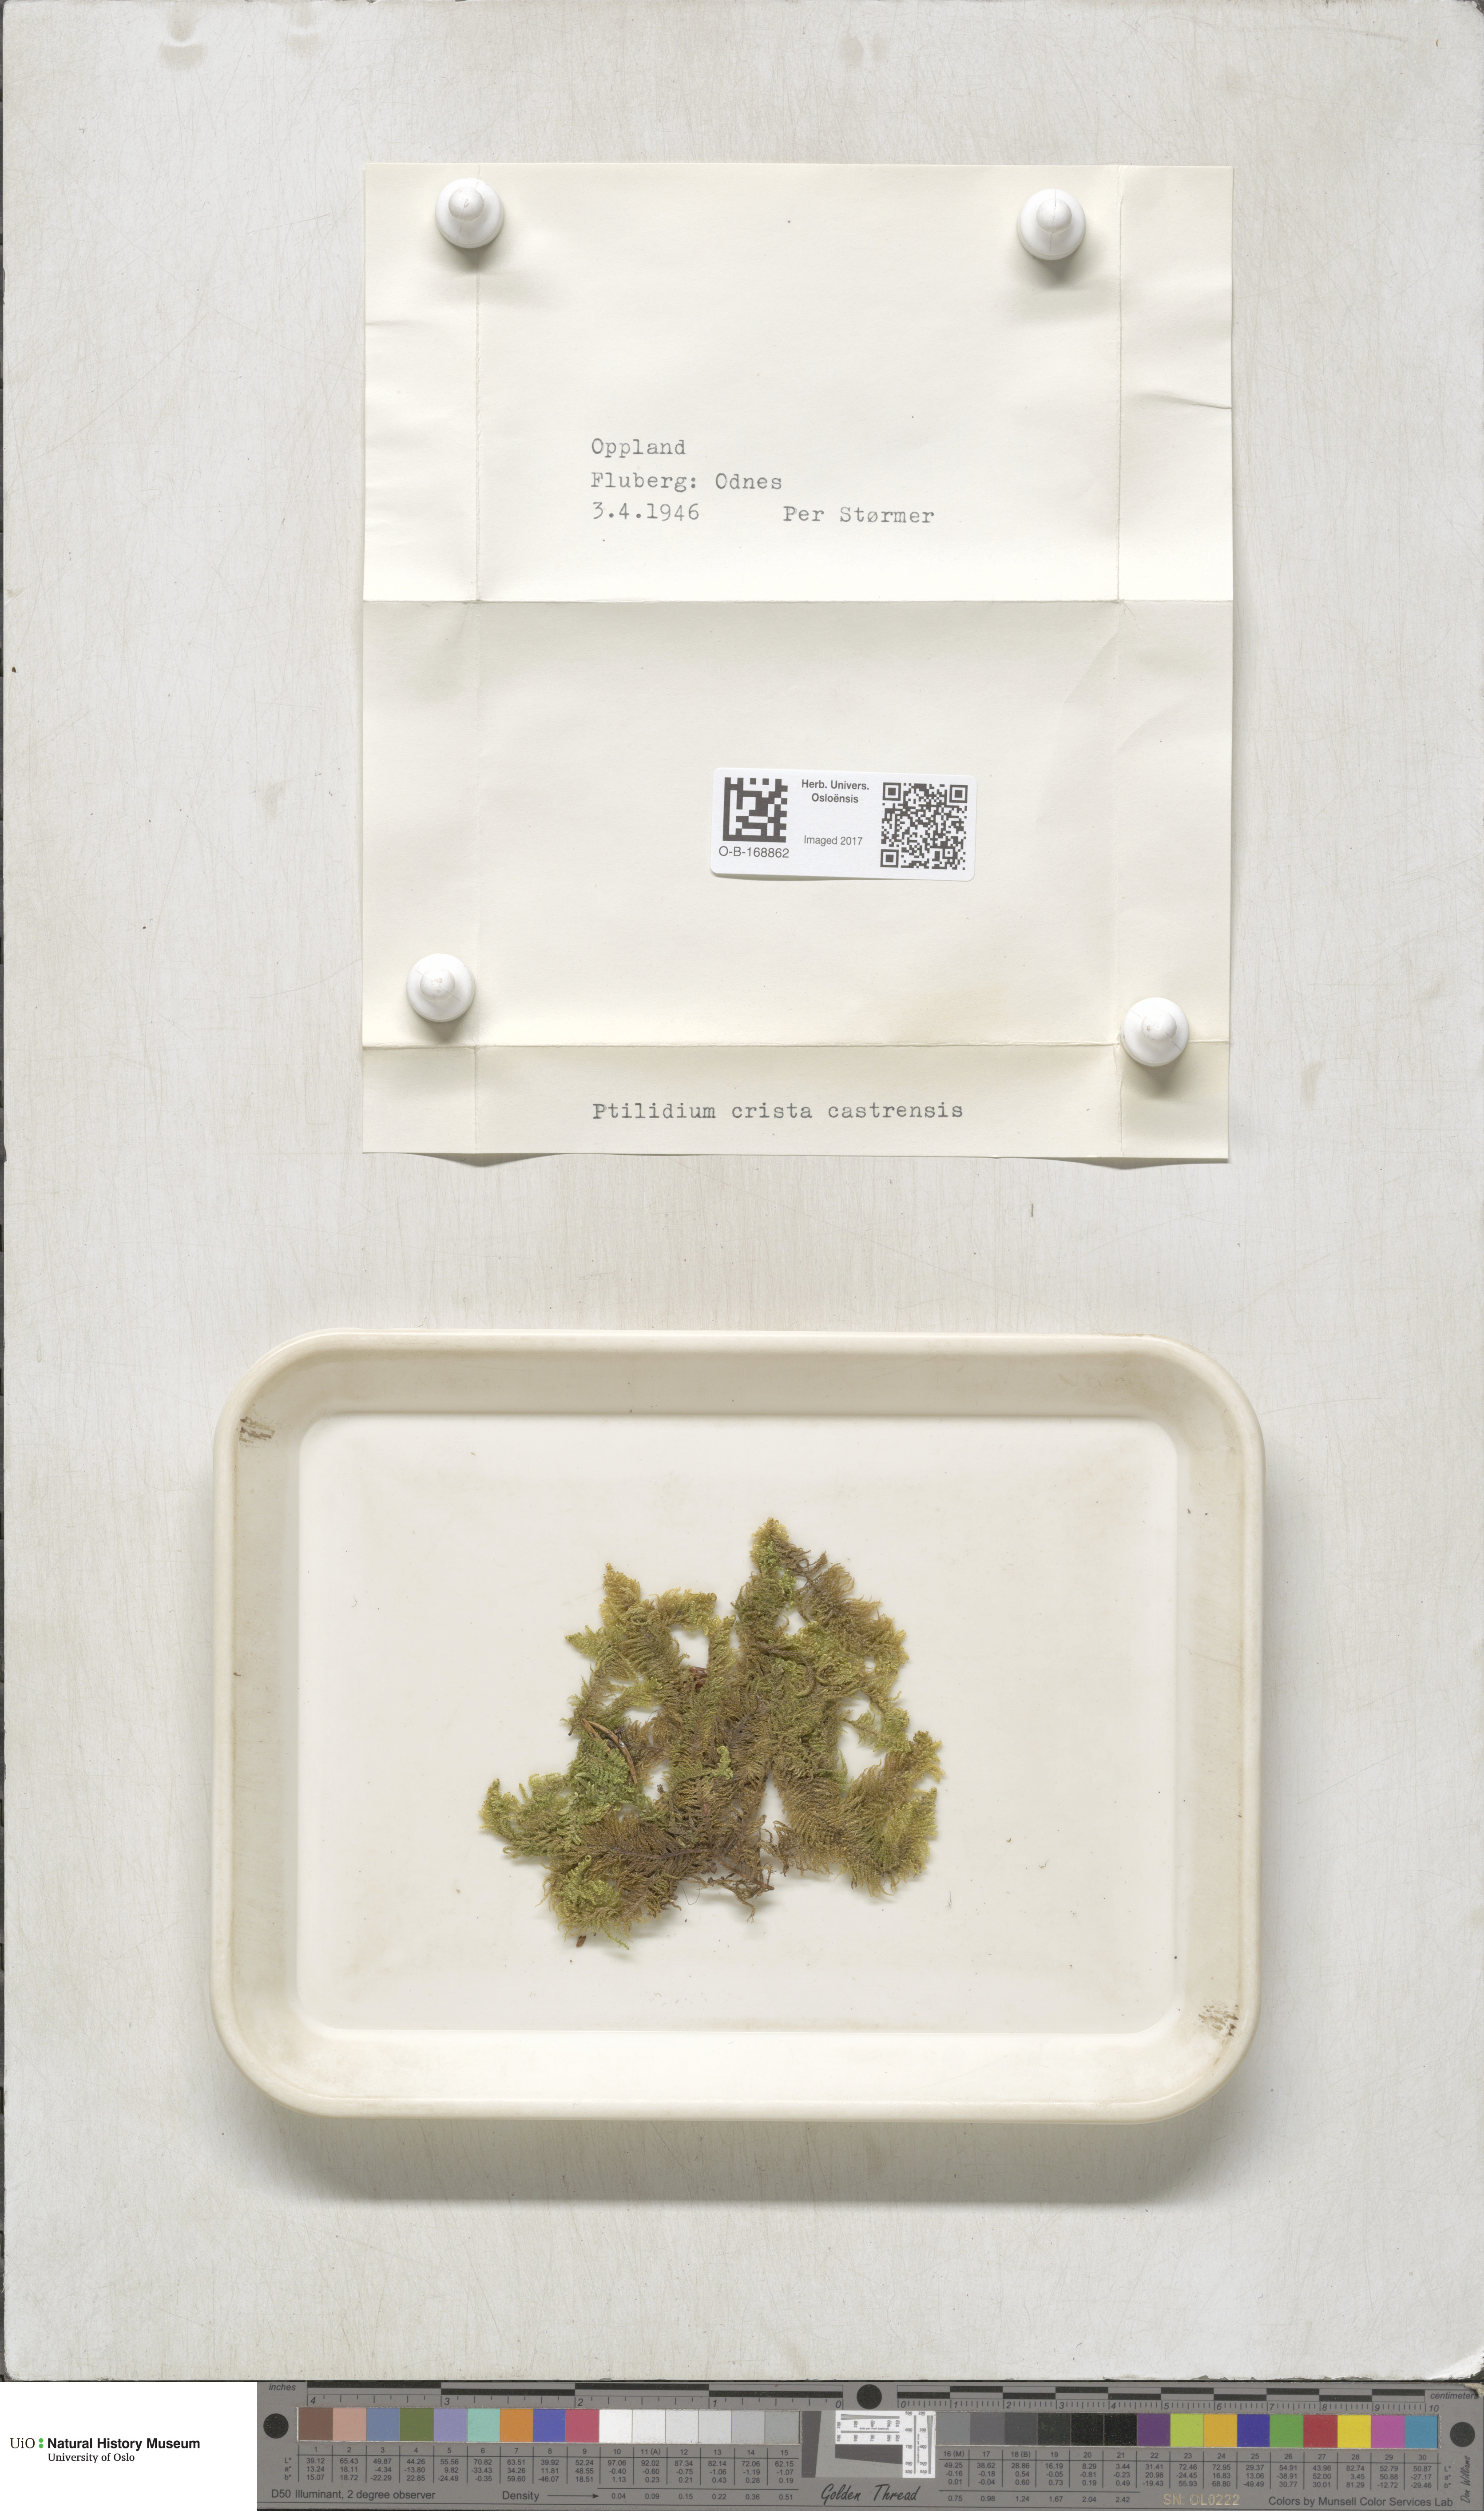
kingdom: Plantae
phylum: Bryophyta
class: Bryopsida
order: Hypnales
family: Pylaisiaceae
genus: Ptilium
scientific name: Ptilium crista-castrensis
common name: Knight's plume moss
